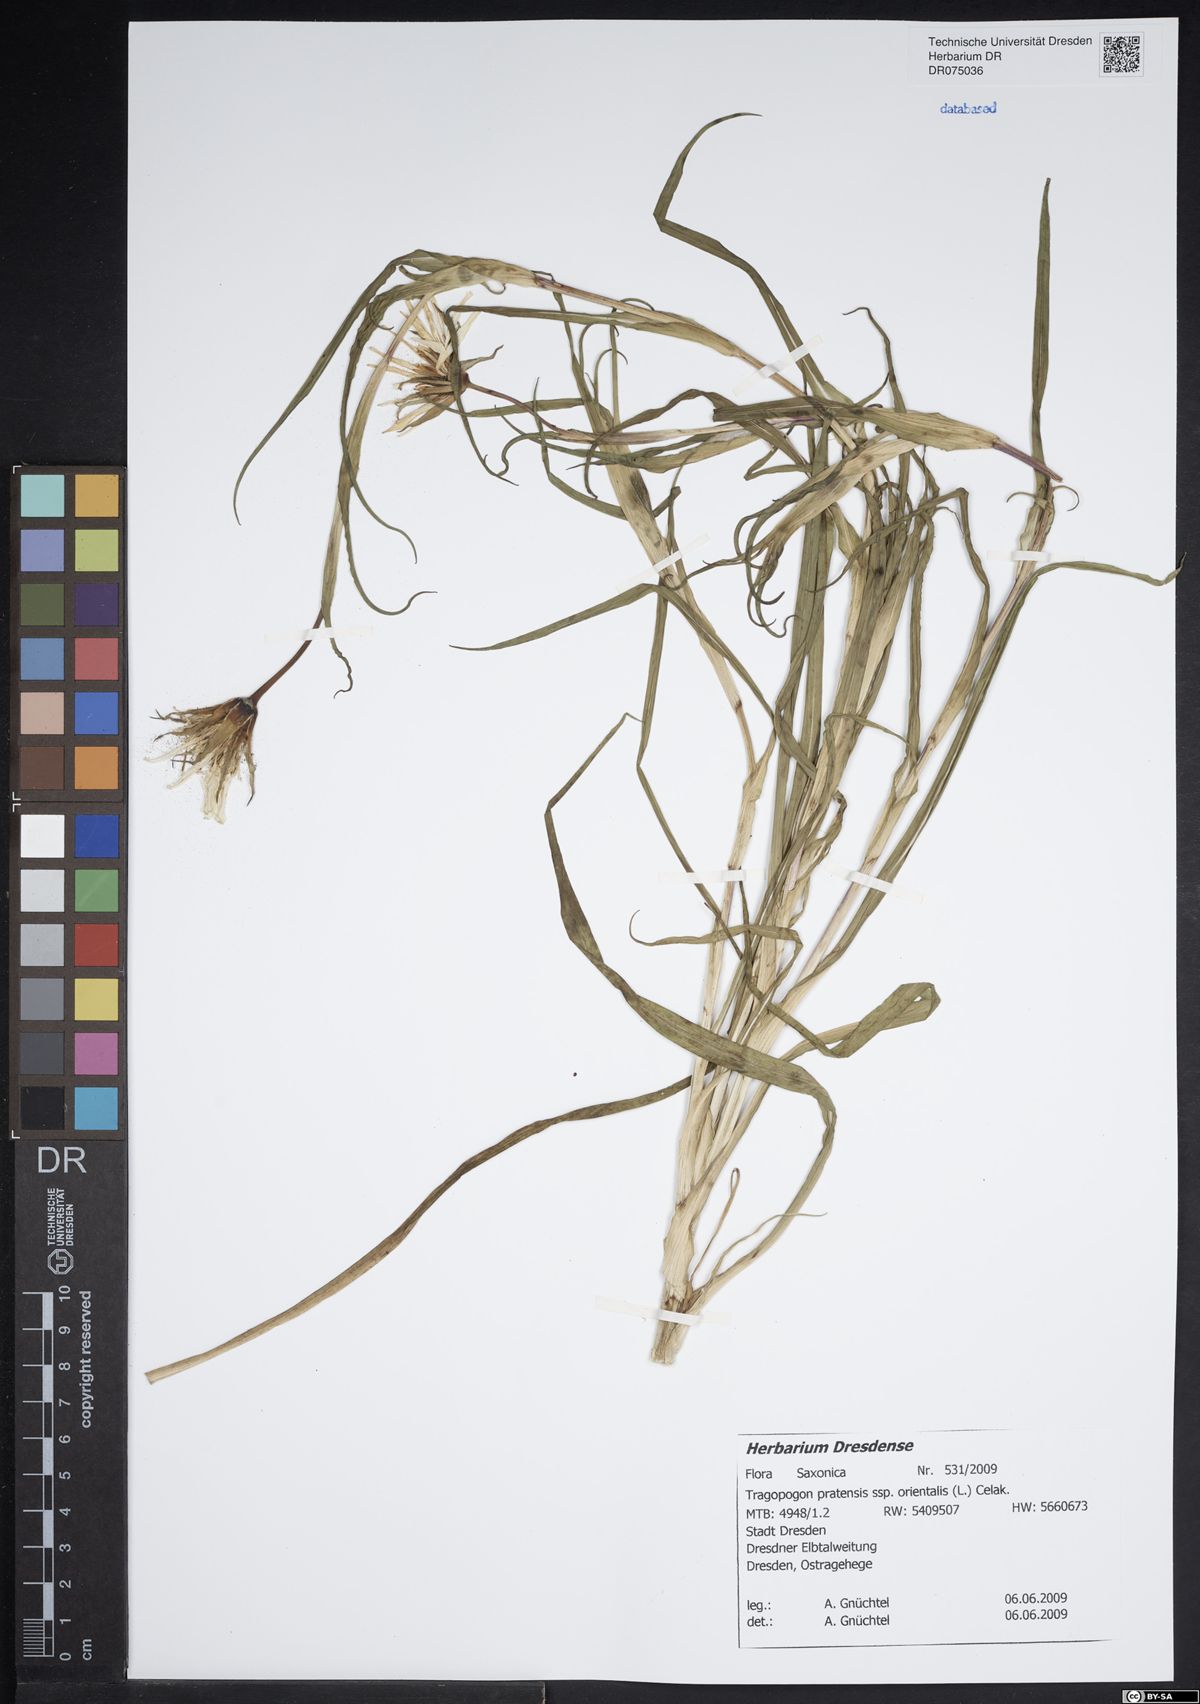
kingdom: Plantae
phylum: Tracheophyta
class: Magnoliopsida
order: Asterales
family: Asteraceae
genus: Tragopogon
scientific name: Tragopogon orientalis
